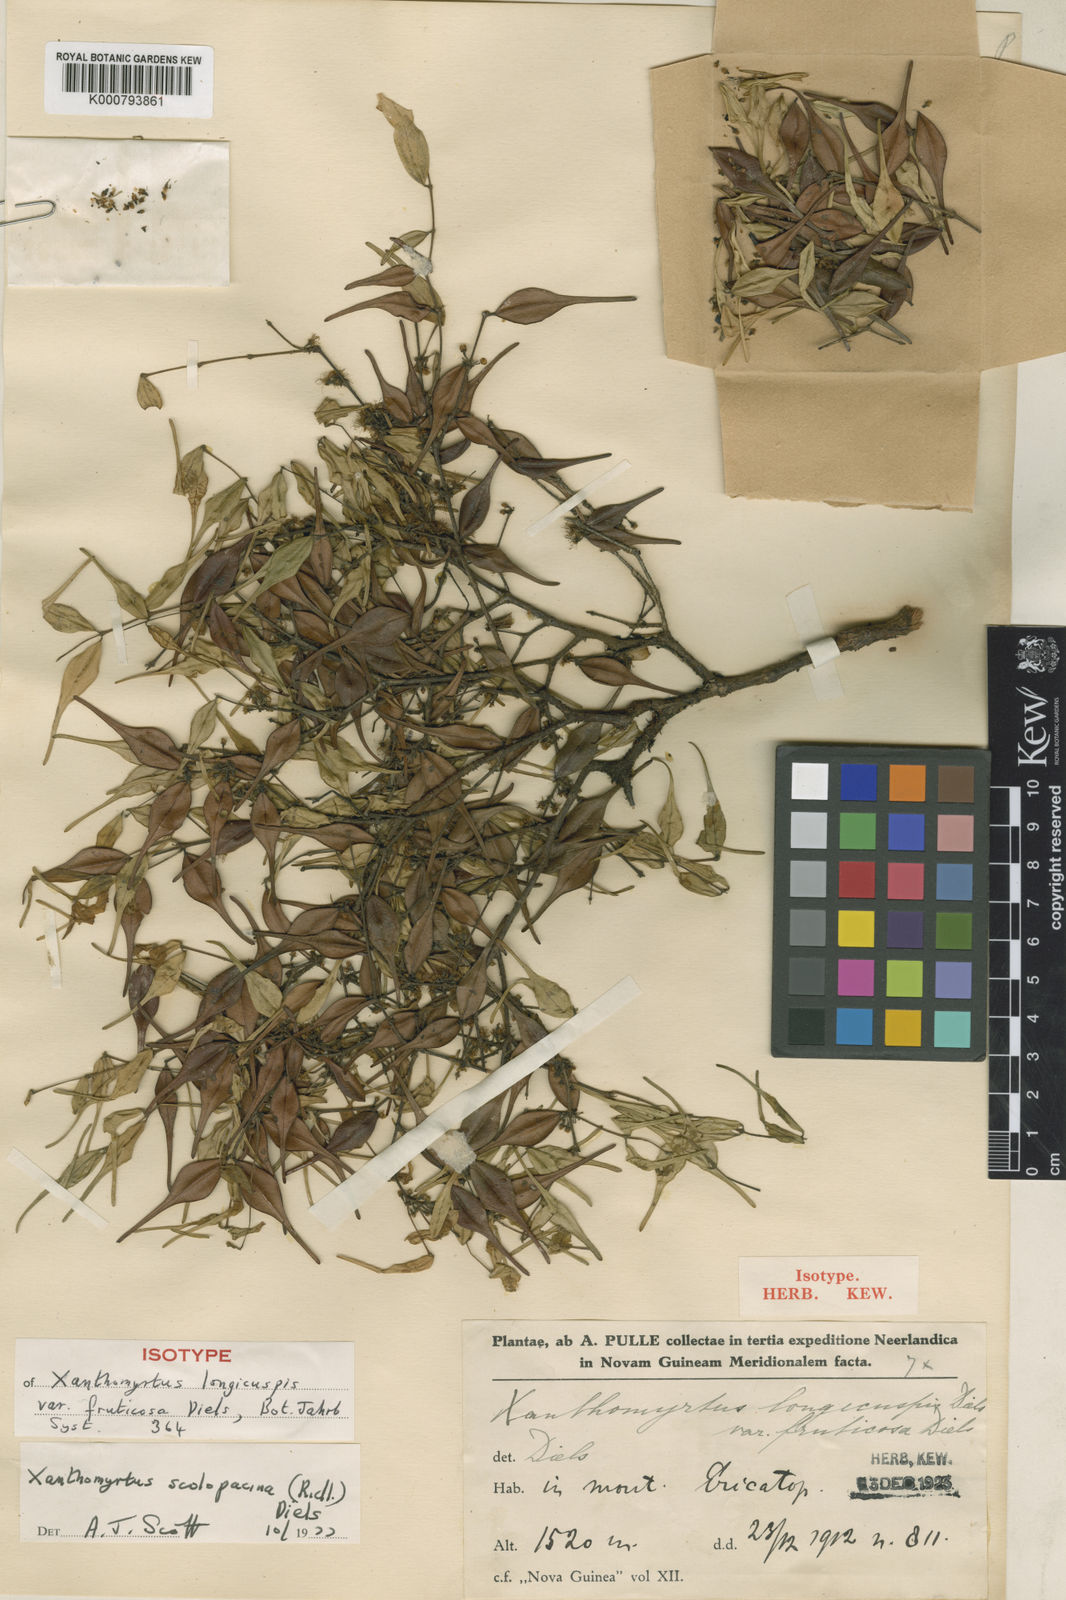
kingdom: Plantae
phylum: Tracheophyta
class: Magnoliopsida
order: Myrtales
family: Myrtaceae
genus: Xanthomyrtus
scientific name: Xanthomyrtus scolopacina
